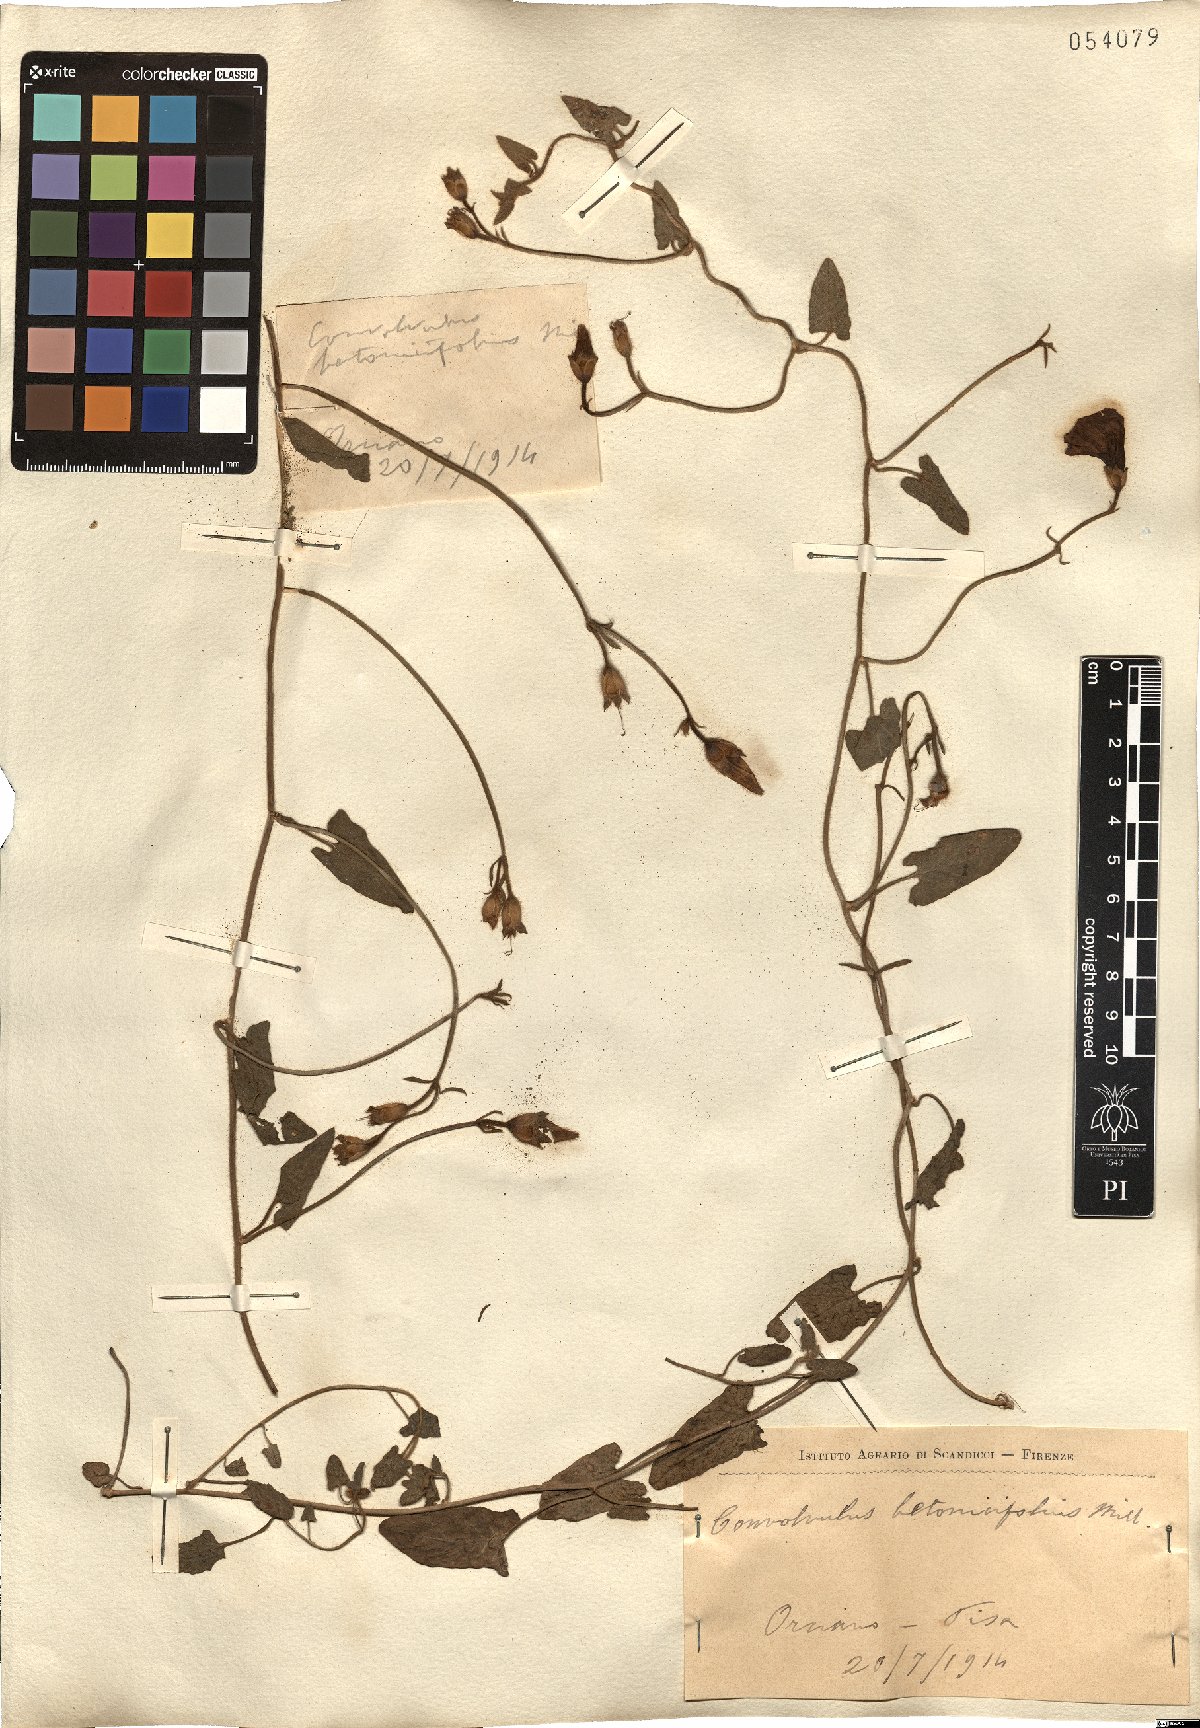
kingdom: Plantae
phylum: Tracheophyta
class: Magnoliopsida
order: Solanales
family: Convolvulaceae
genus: Convolvulus
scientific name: Convolvulus betonicifolius
